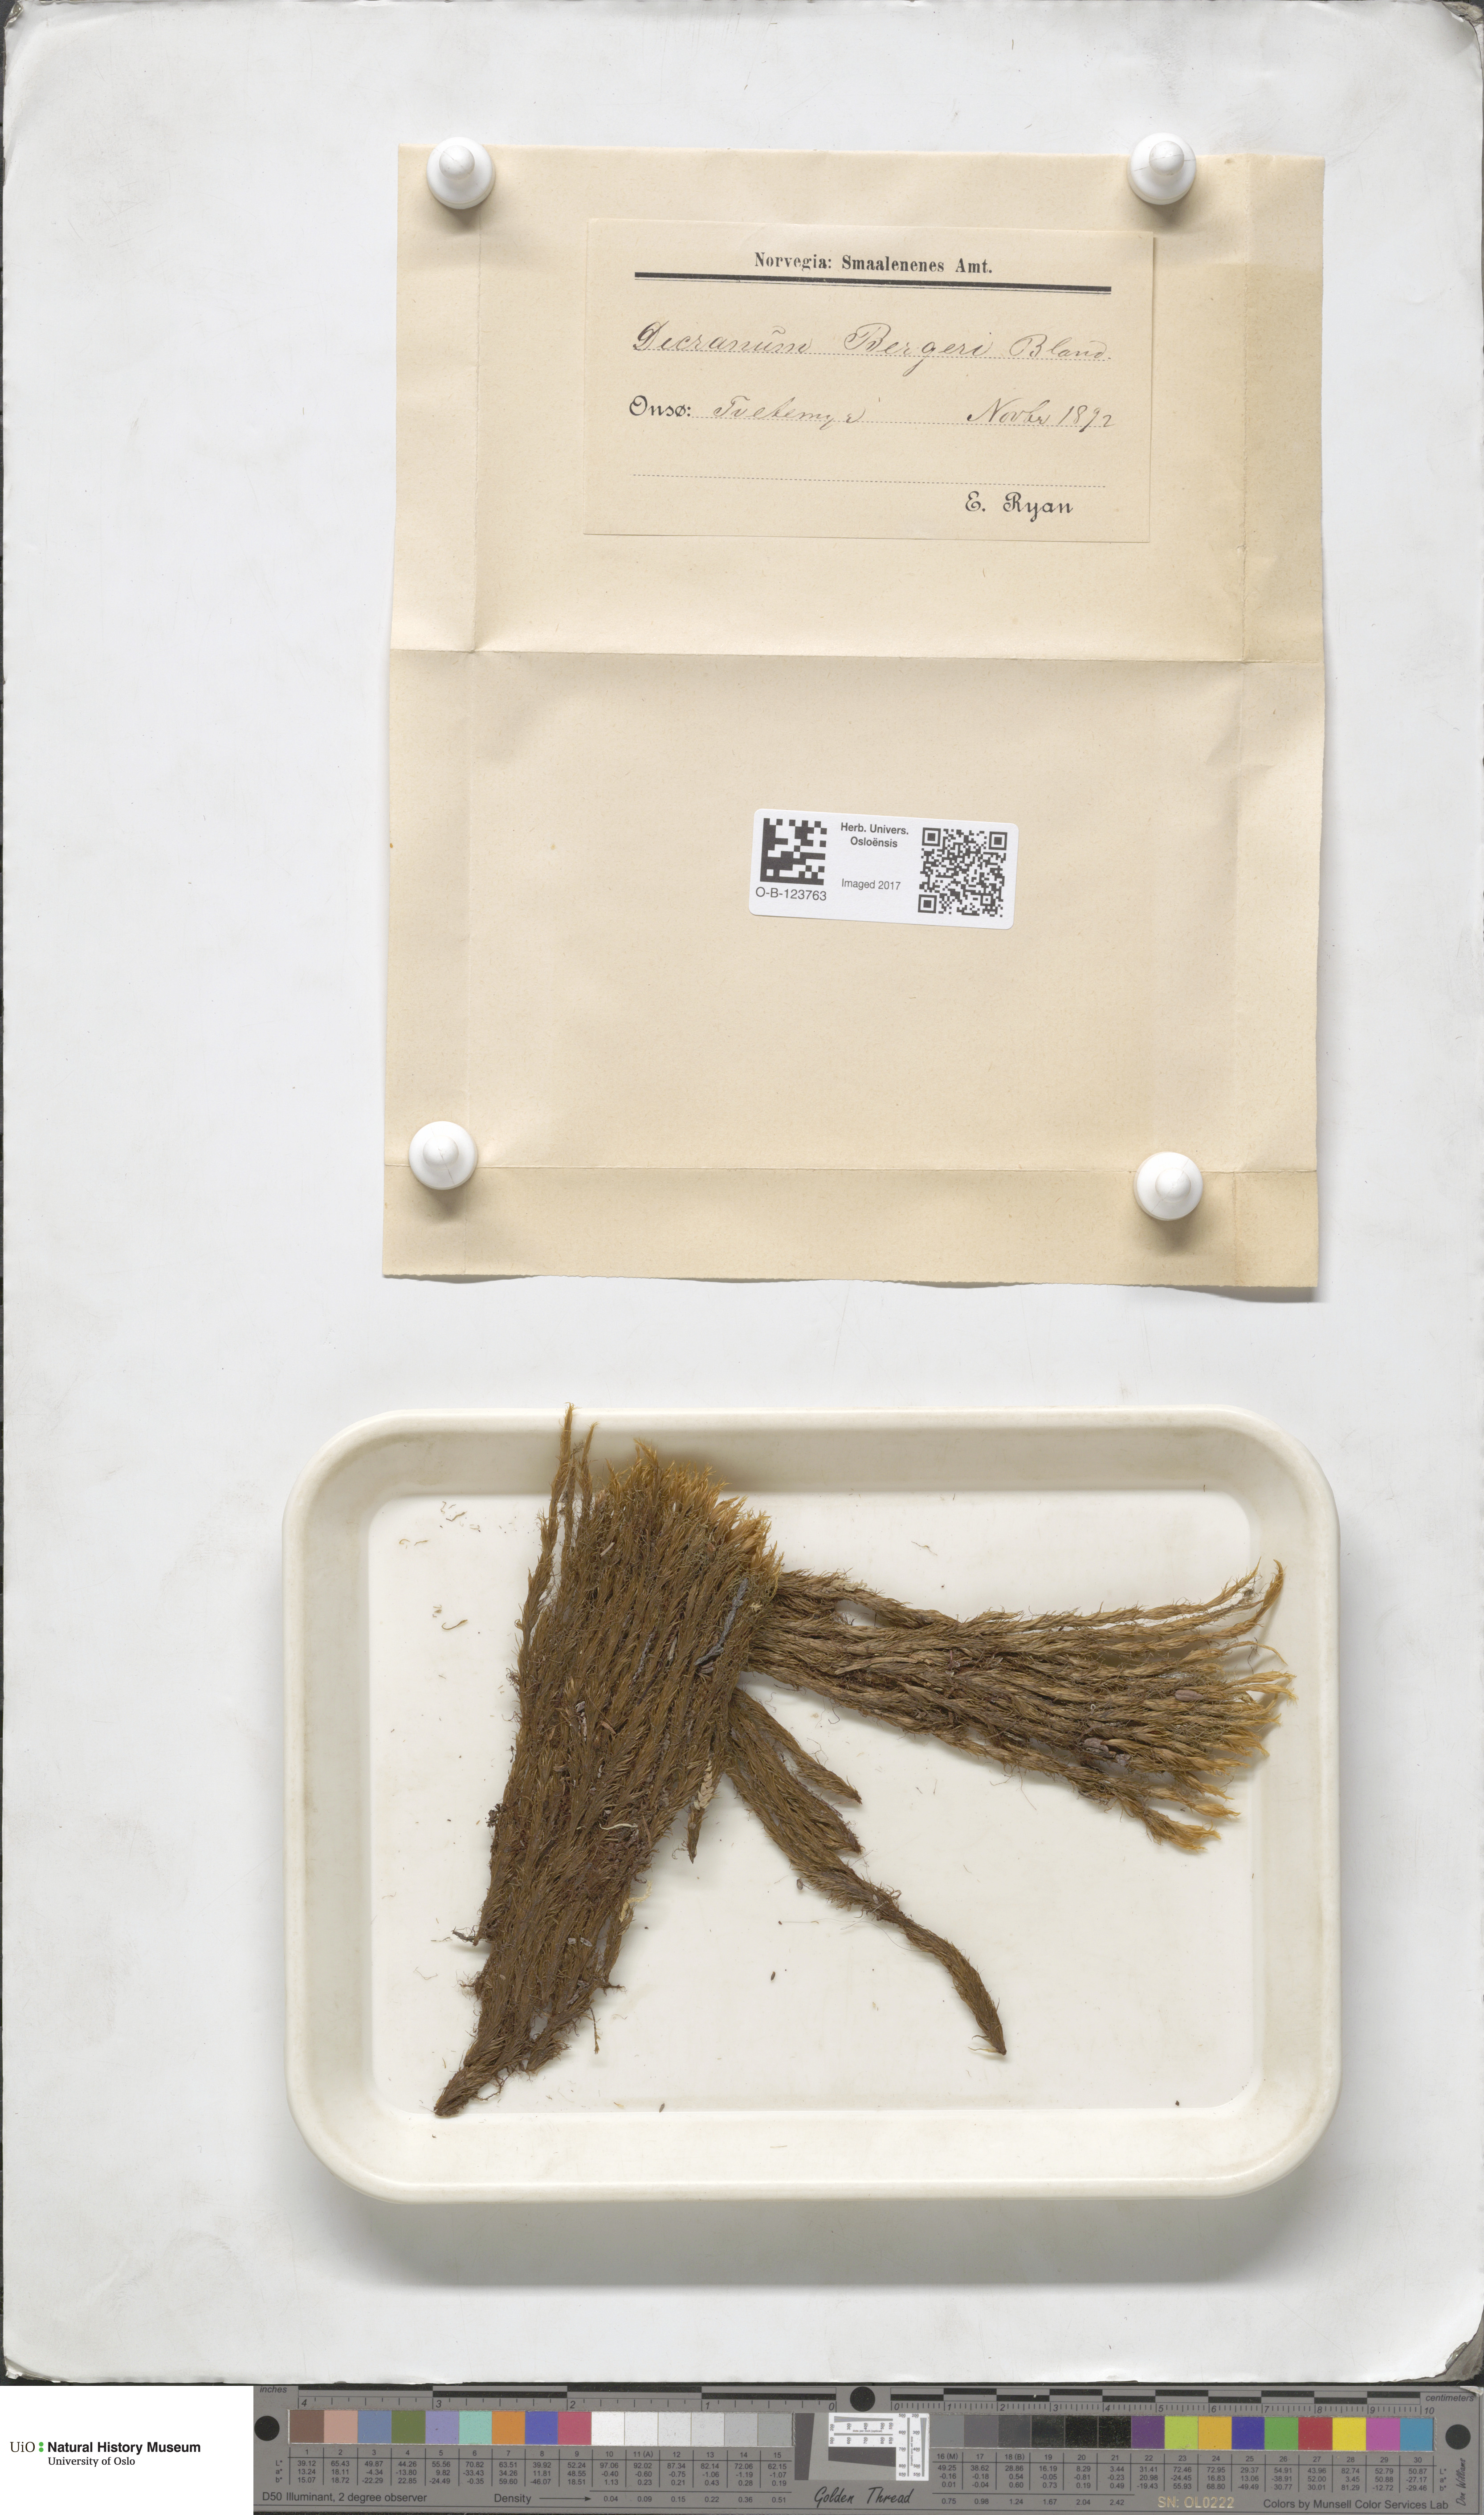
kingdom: Plantae
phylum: Bryophyta
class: Bryopsida
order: Dicranales
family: Dicranaceae
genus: Dicranum
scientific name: Dicranum undulatum
